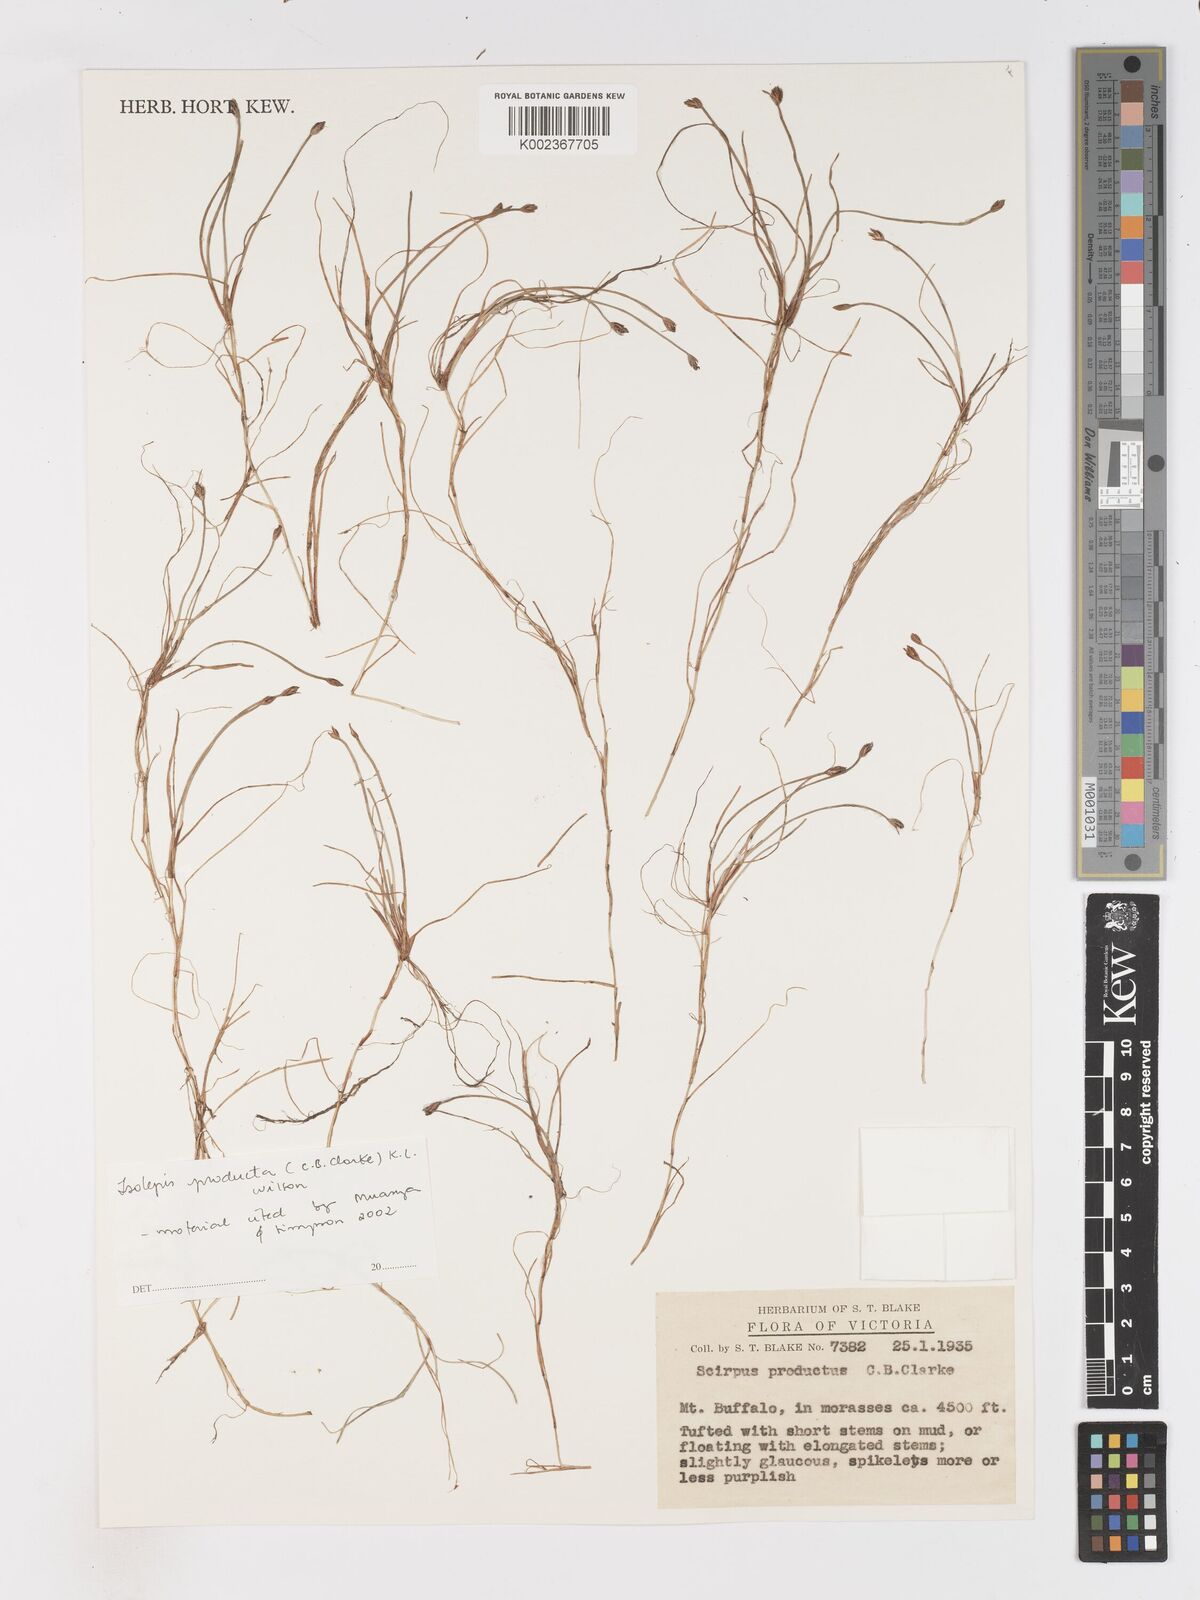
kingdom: Plantae
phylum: Tracheophyta
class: Liliopsida
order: Poales
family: Cyperaceae
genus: Isolepis
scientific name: Isolepis producta
